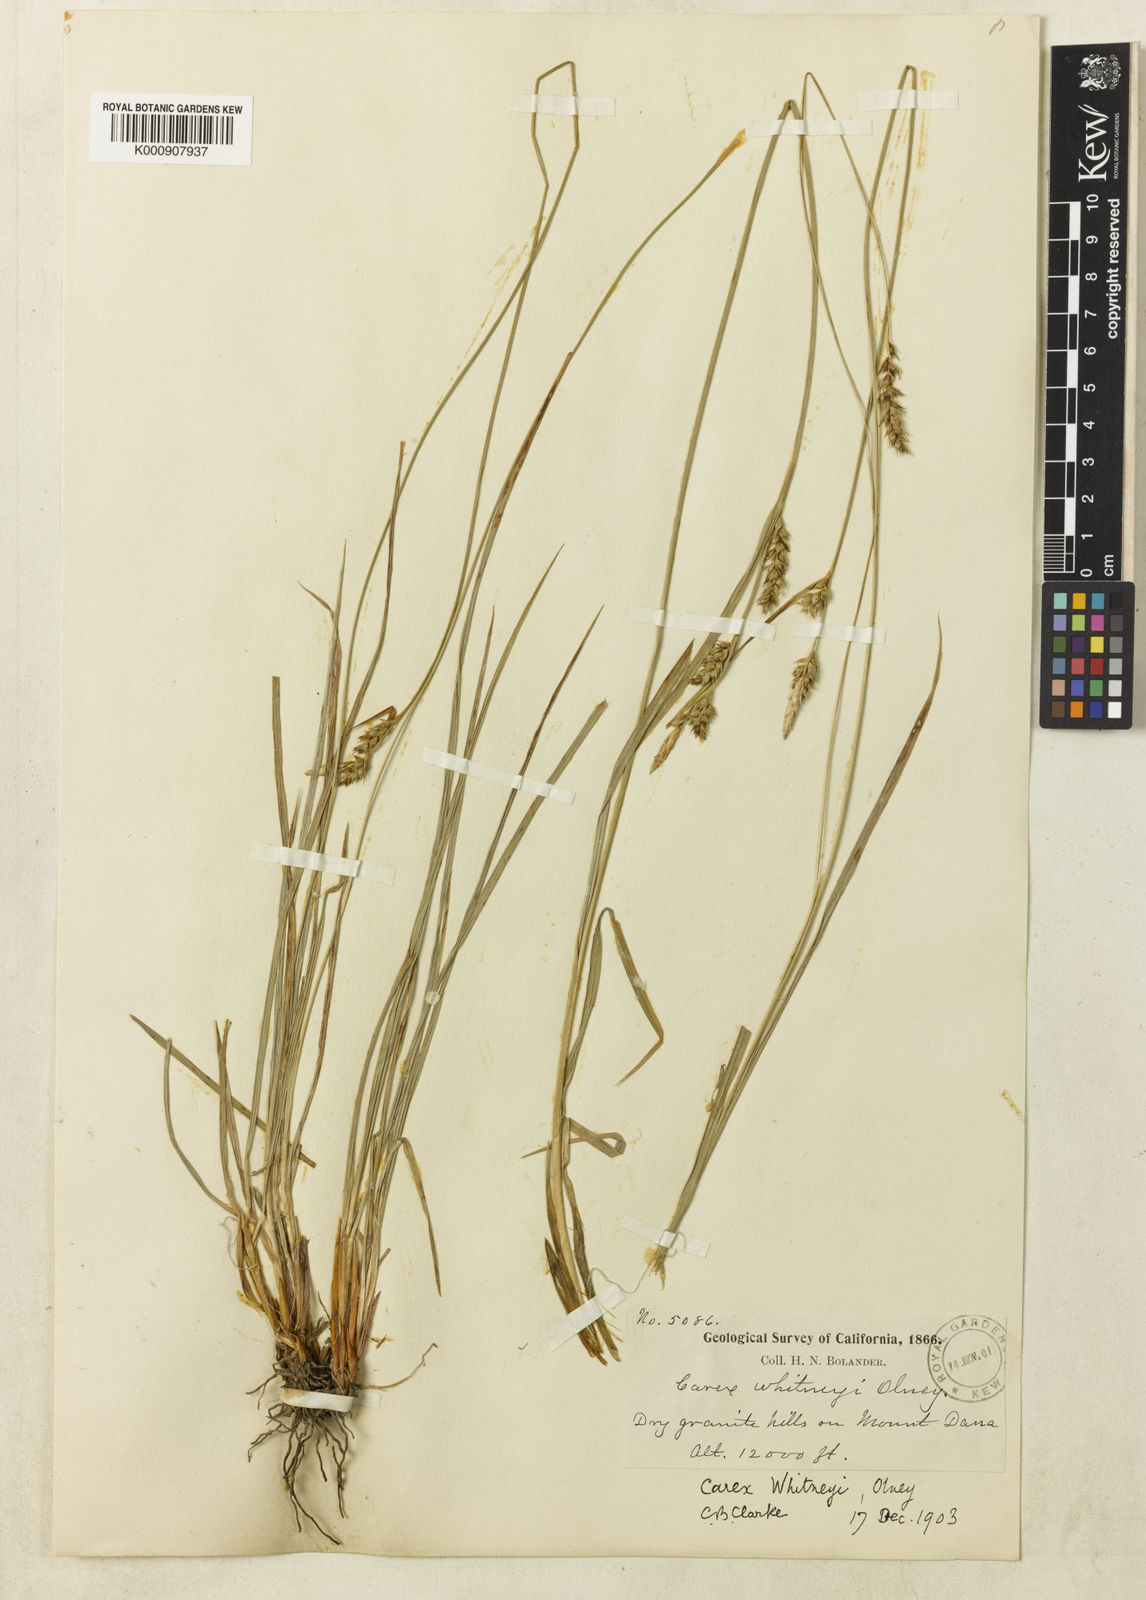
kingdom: Plantae
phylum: Tracheophyta
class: Liliopsida
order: Poales
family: Cyperaceae
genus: Carex
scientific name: Carex whitneyi
